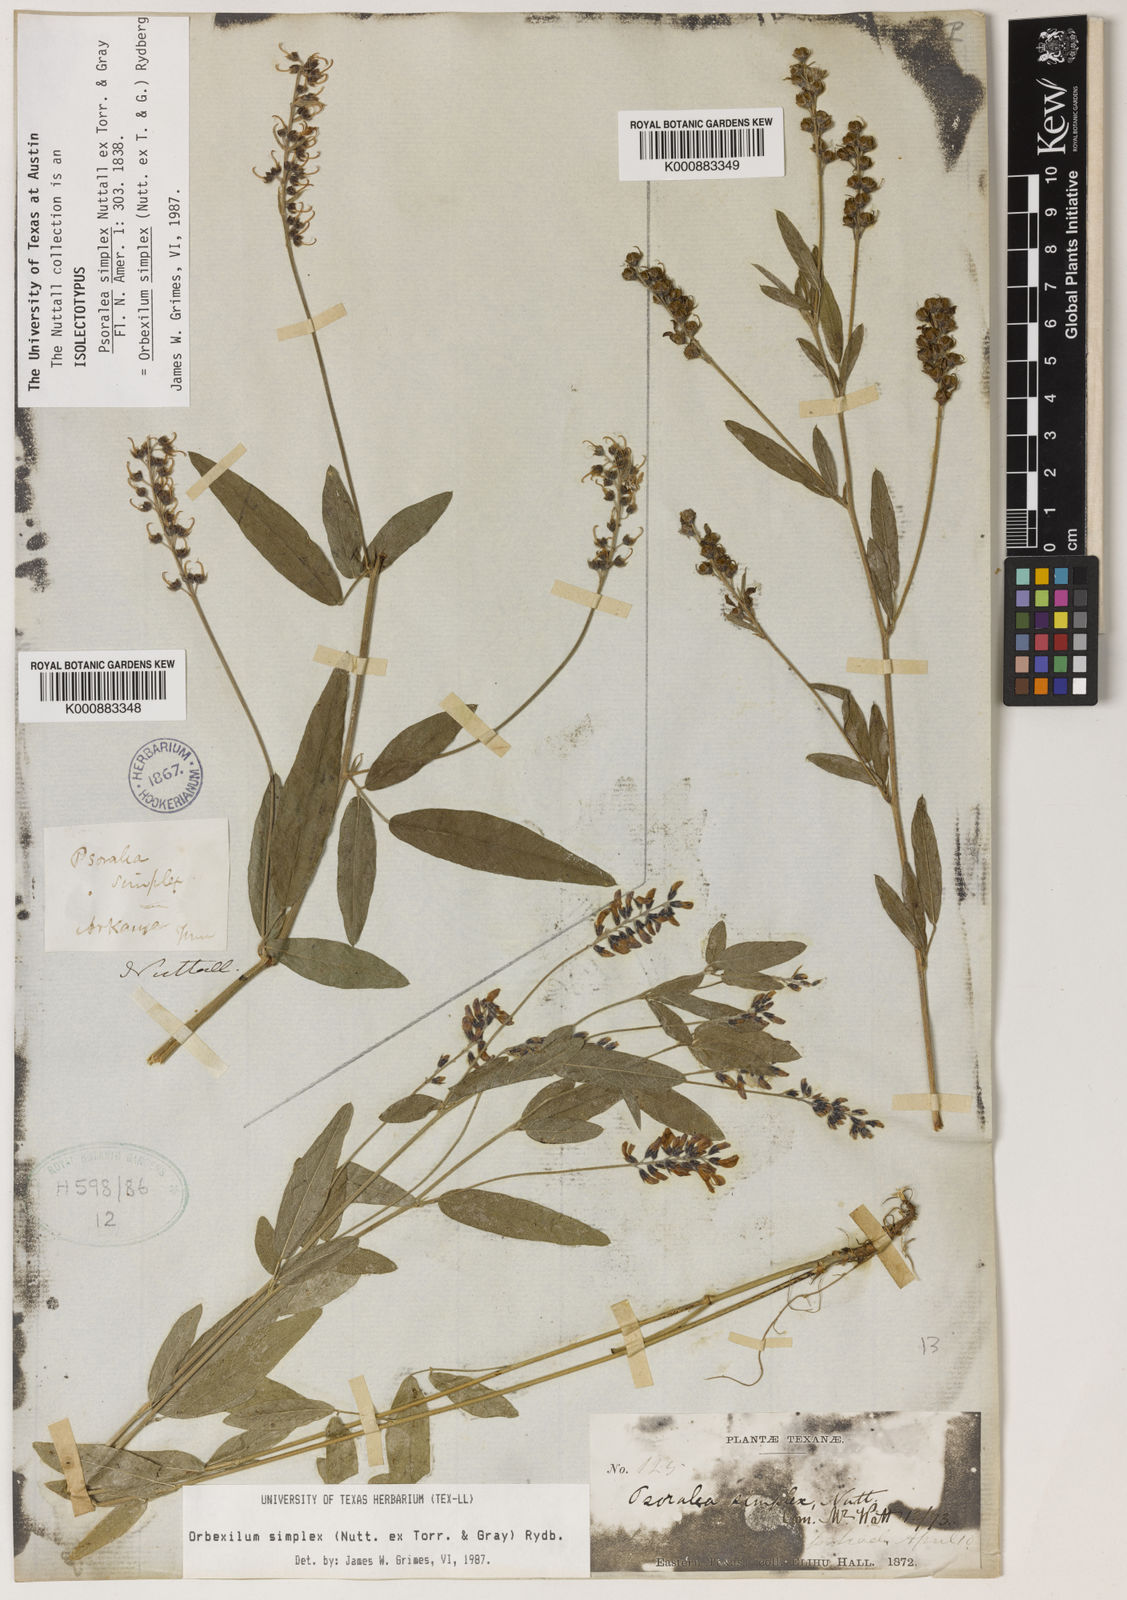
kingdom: Plantae
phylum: Tracheophyta
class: Magnoliopsida
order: Fabales
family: Fabaceae
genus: Orbexilum
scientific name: Orbexilum simplex
